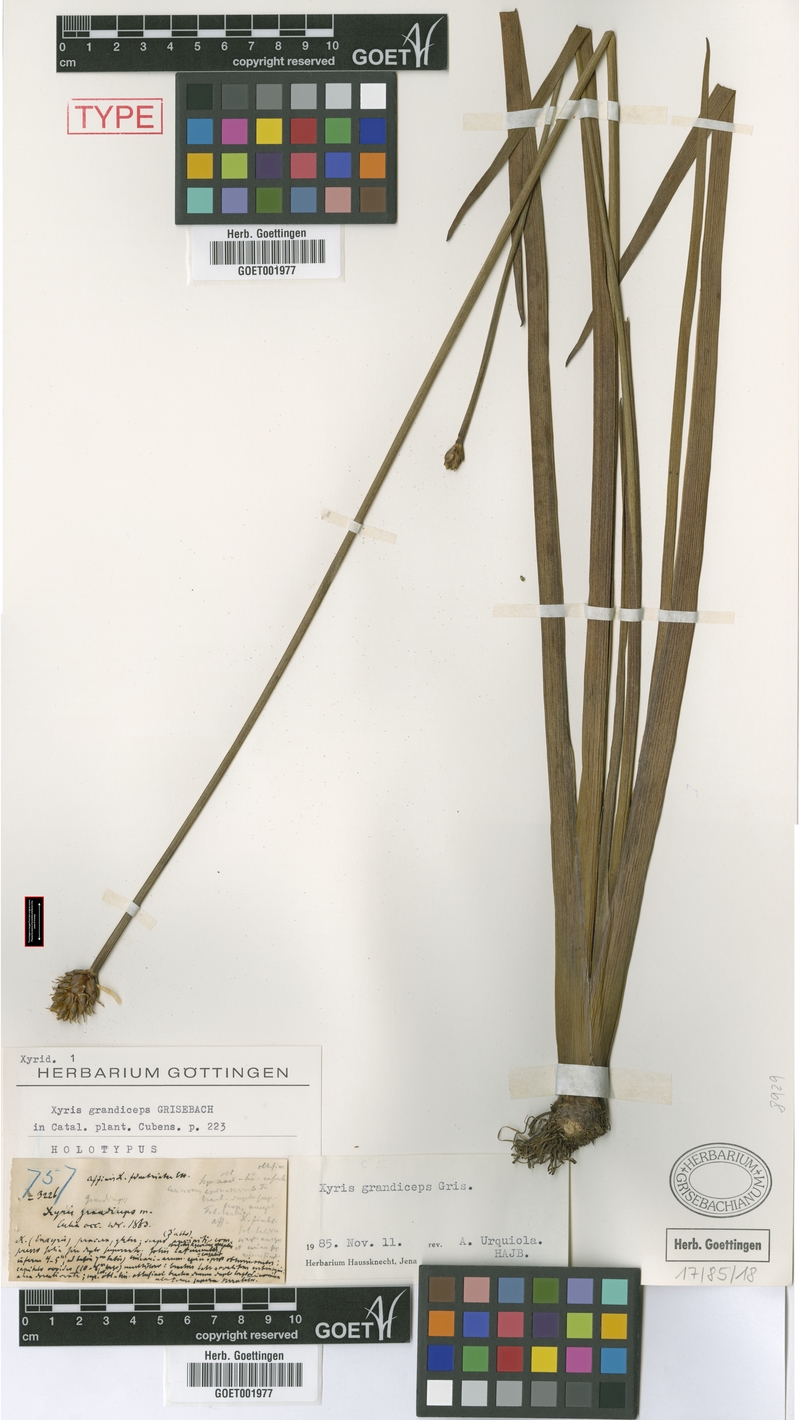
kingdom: Plantae
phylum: Tracheophyta
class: Liliopsida
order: Poales
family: Xyridaceae
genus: Xyris
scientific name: Xyris grandiceps
